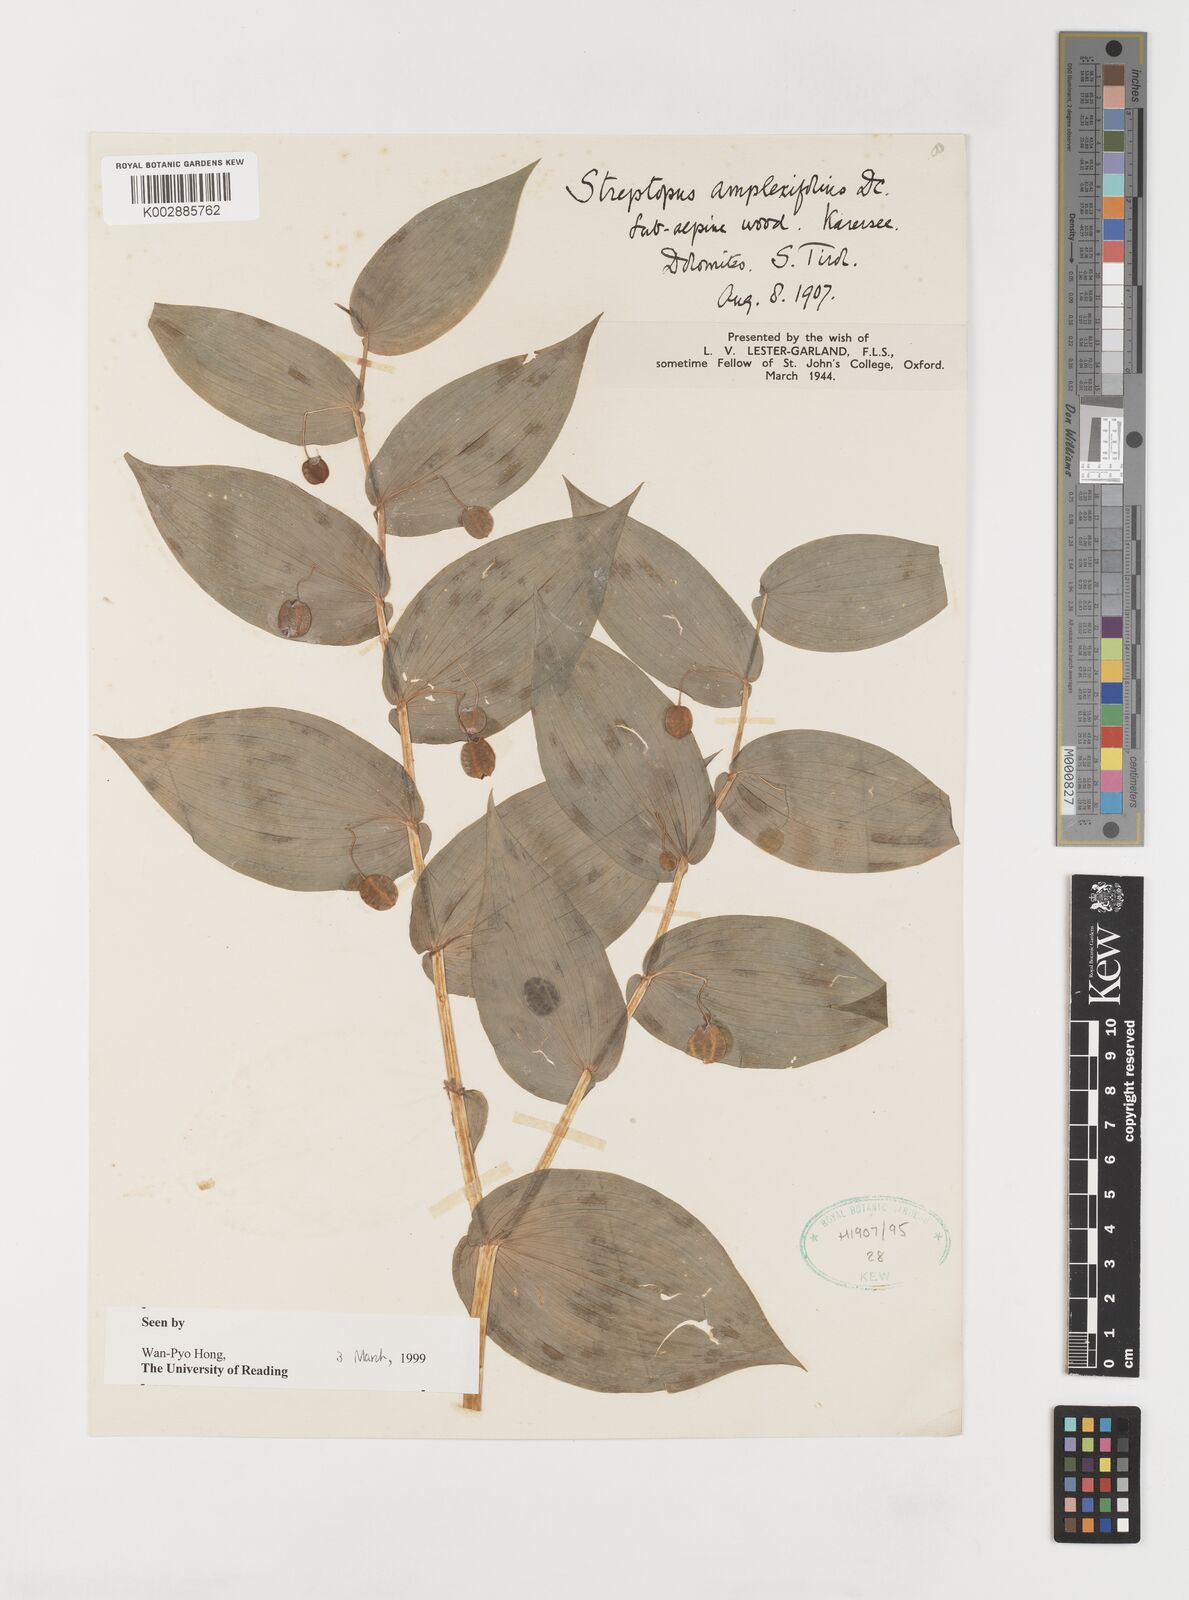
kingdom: Plantae
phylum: Tracheophyta
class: Liliopsida
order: Liliales
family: Liliaceae
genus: Streptopus
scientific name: Streptopus amplexifolius
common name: Clasp twisted stalk
